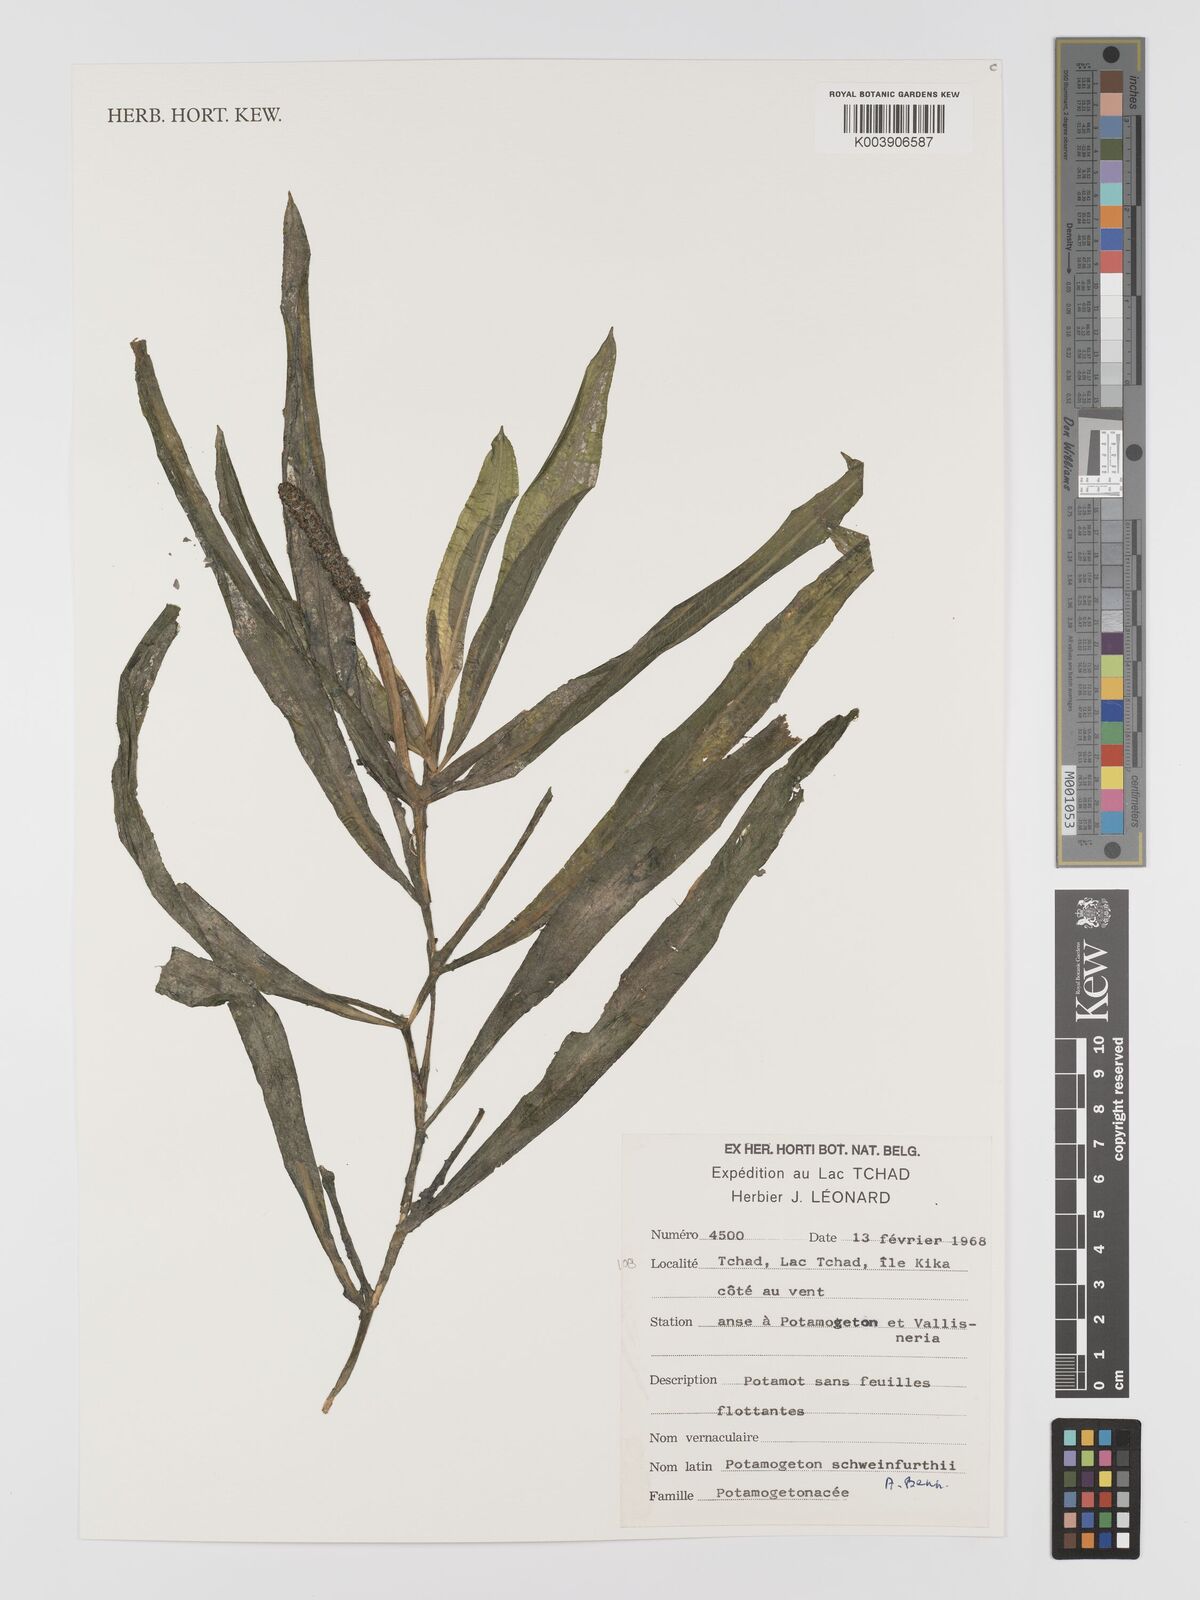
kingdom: Plantae
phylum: Tracheophyta
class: Liliopsida
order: Alismatales
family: Potamogetonaceae
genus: Potamogeton
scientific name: Potamogeton schweinfurthii
